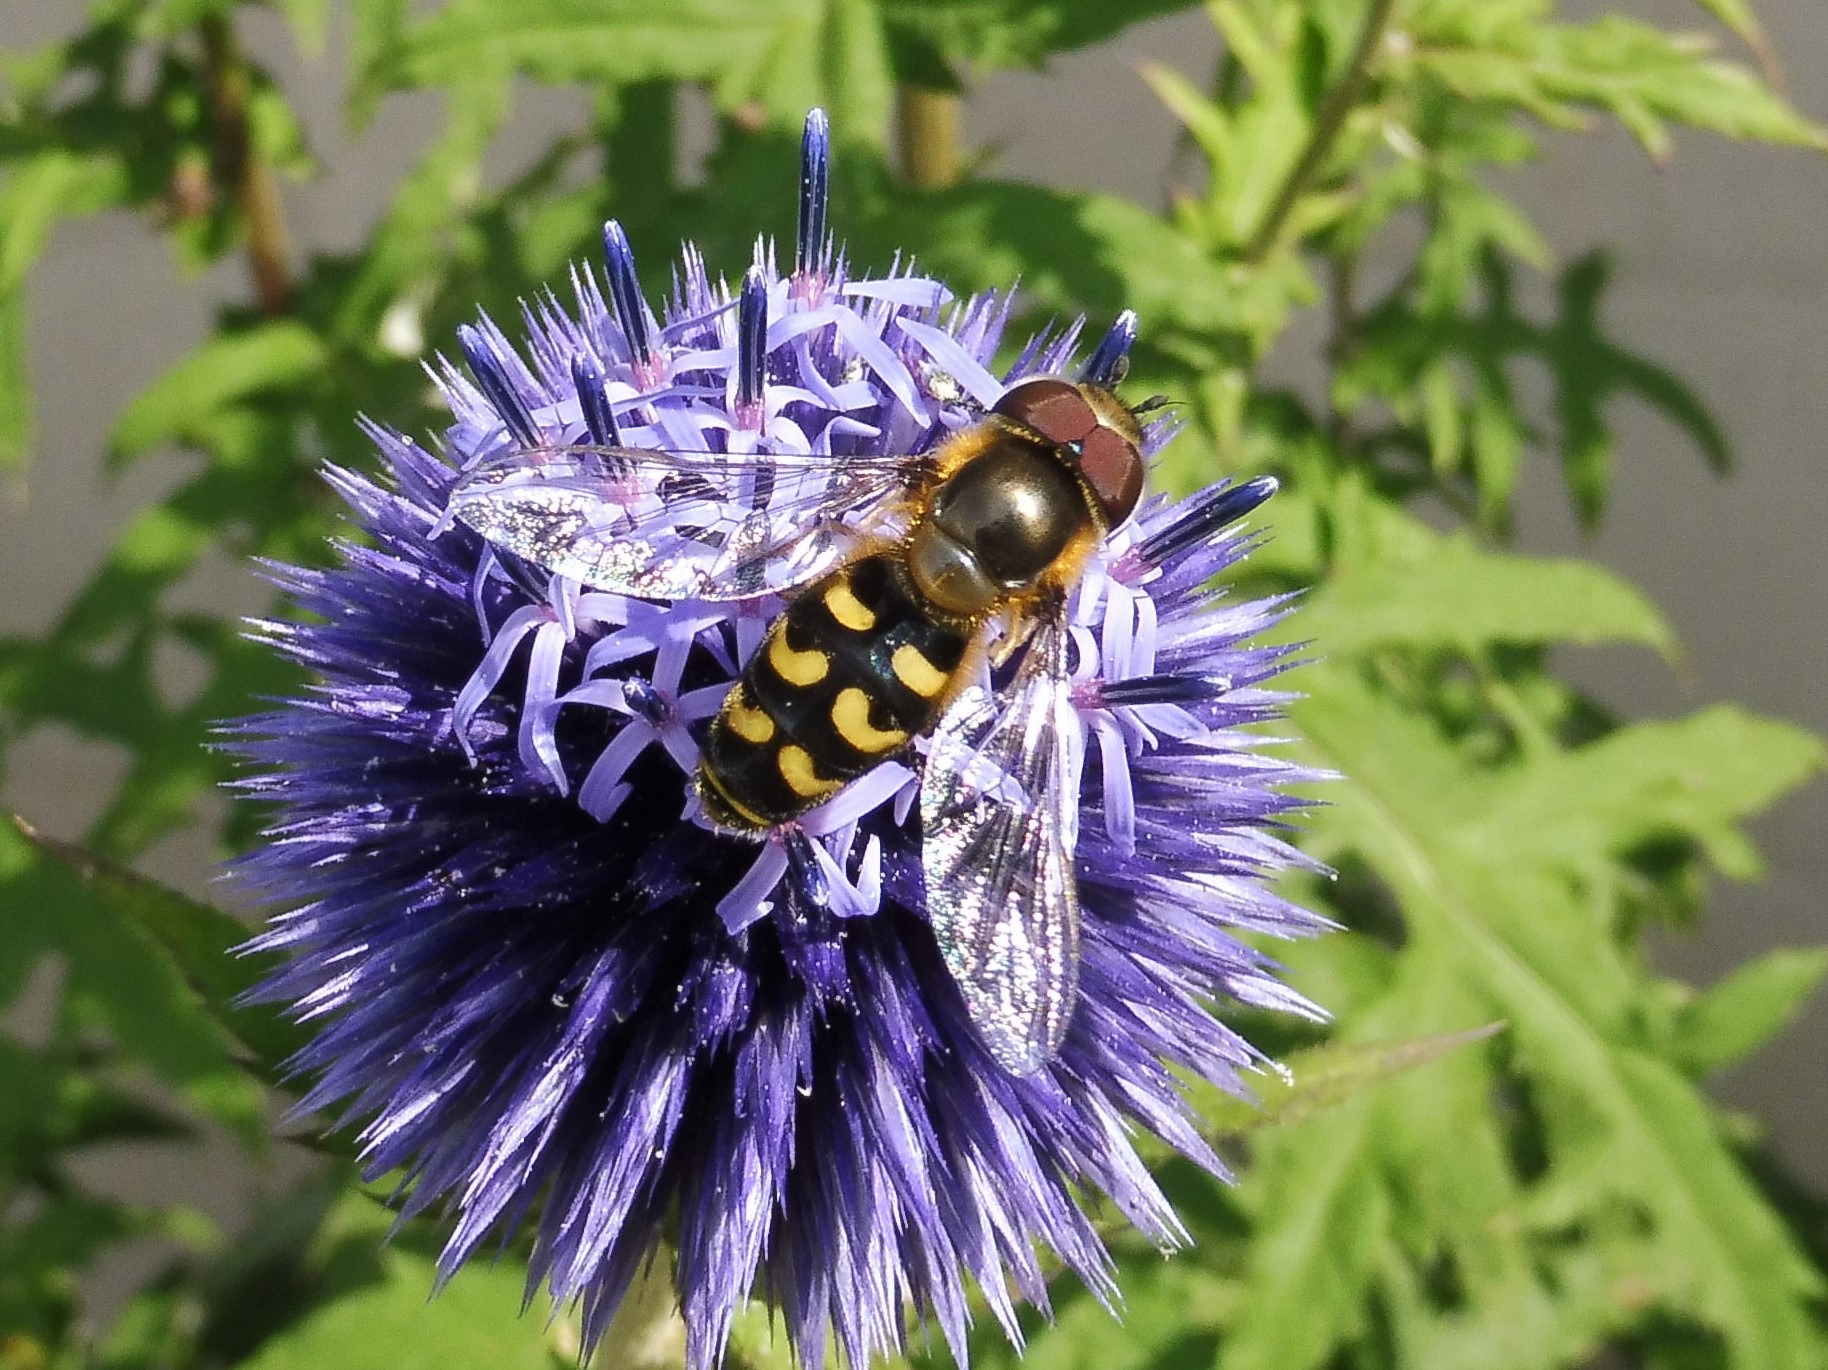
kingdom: Animalia
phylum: Arthropoda
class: Insecta
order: Diptera
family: Syrphidae
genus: Scaeva
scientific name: Scaeva selenitica
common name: Gulplettet agersvirreflue
